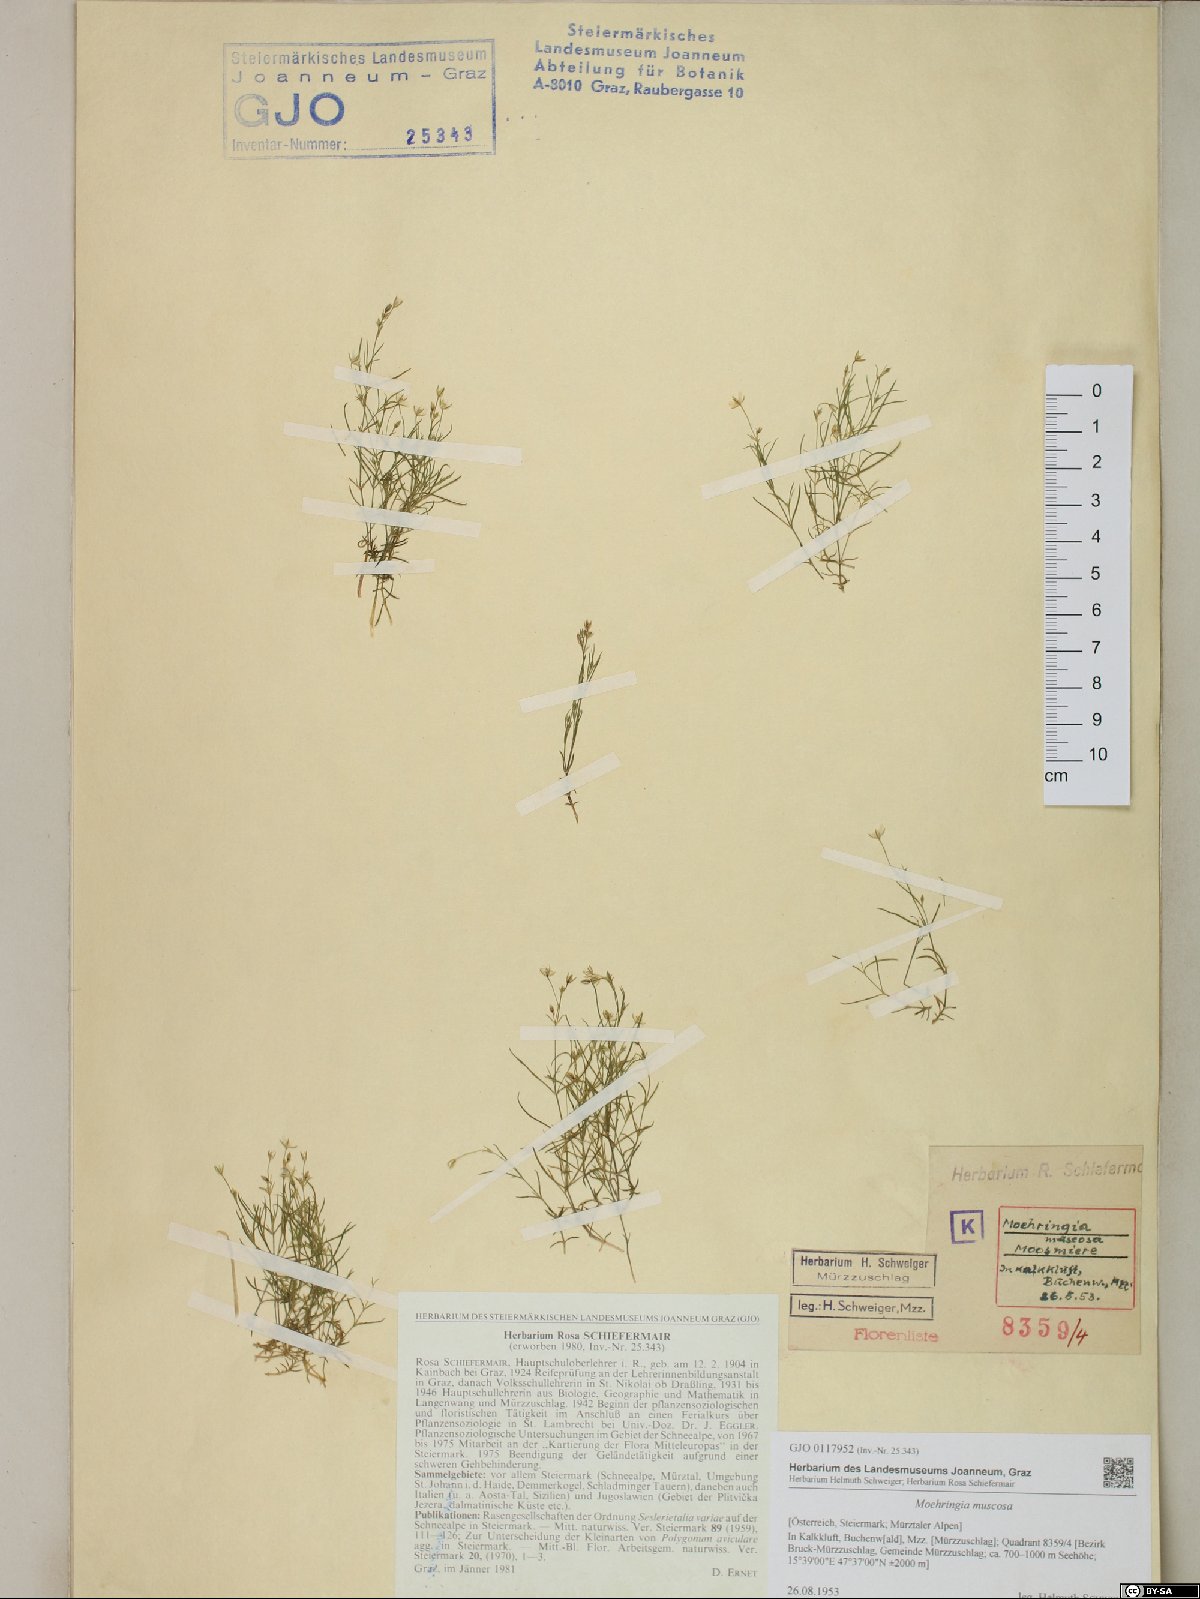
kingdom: Plantae
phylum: Tracheophyta
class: Magnoliopsida
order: Caryophyllales
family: Caryophyllaceae
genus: Moehringia
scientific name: Moehringia muscosa
